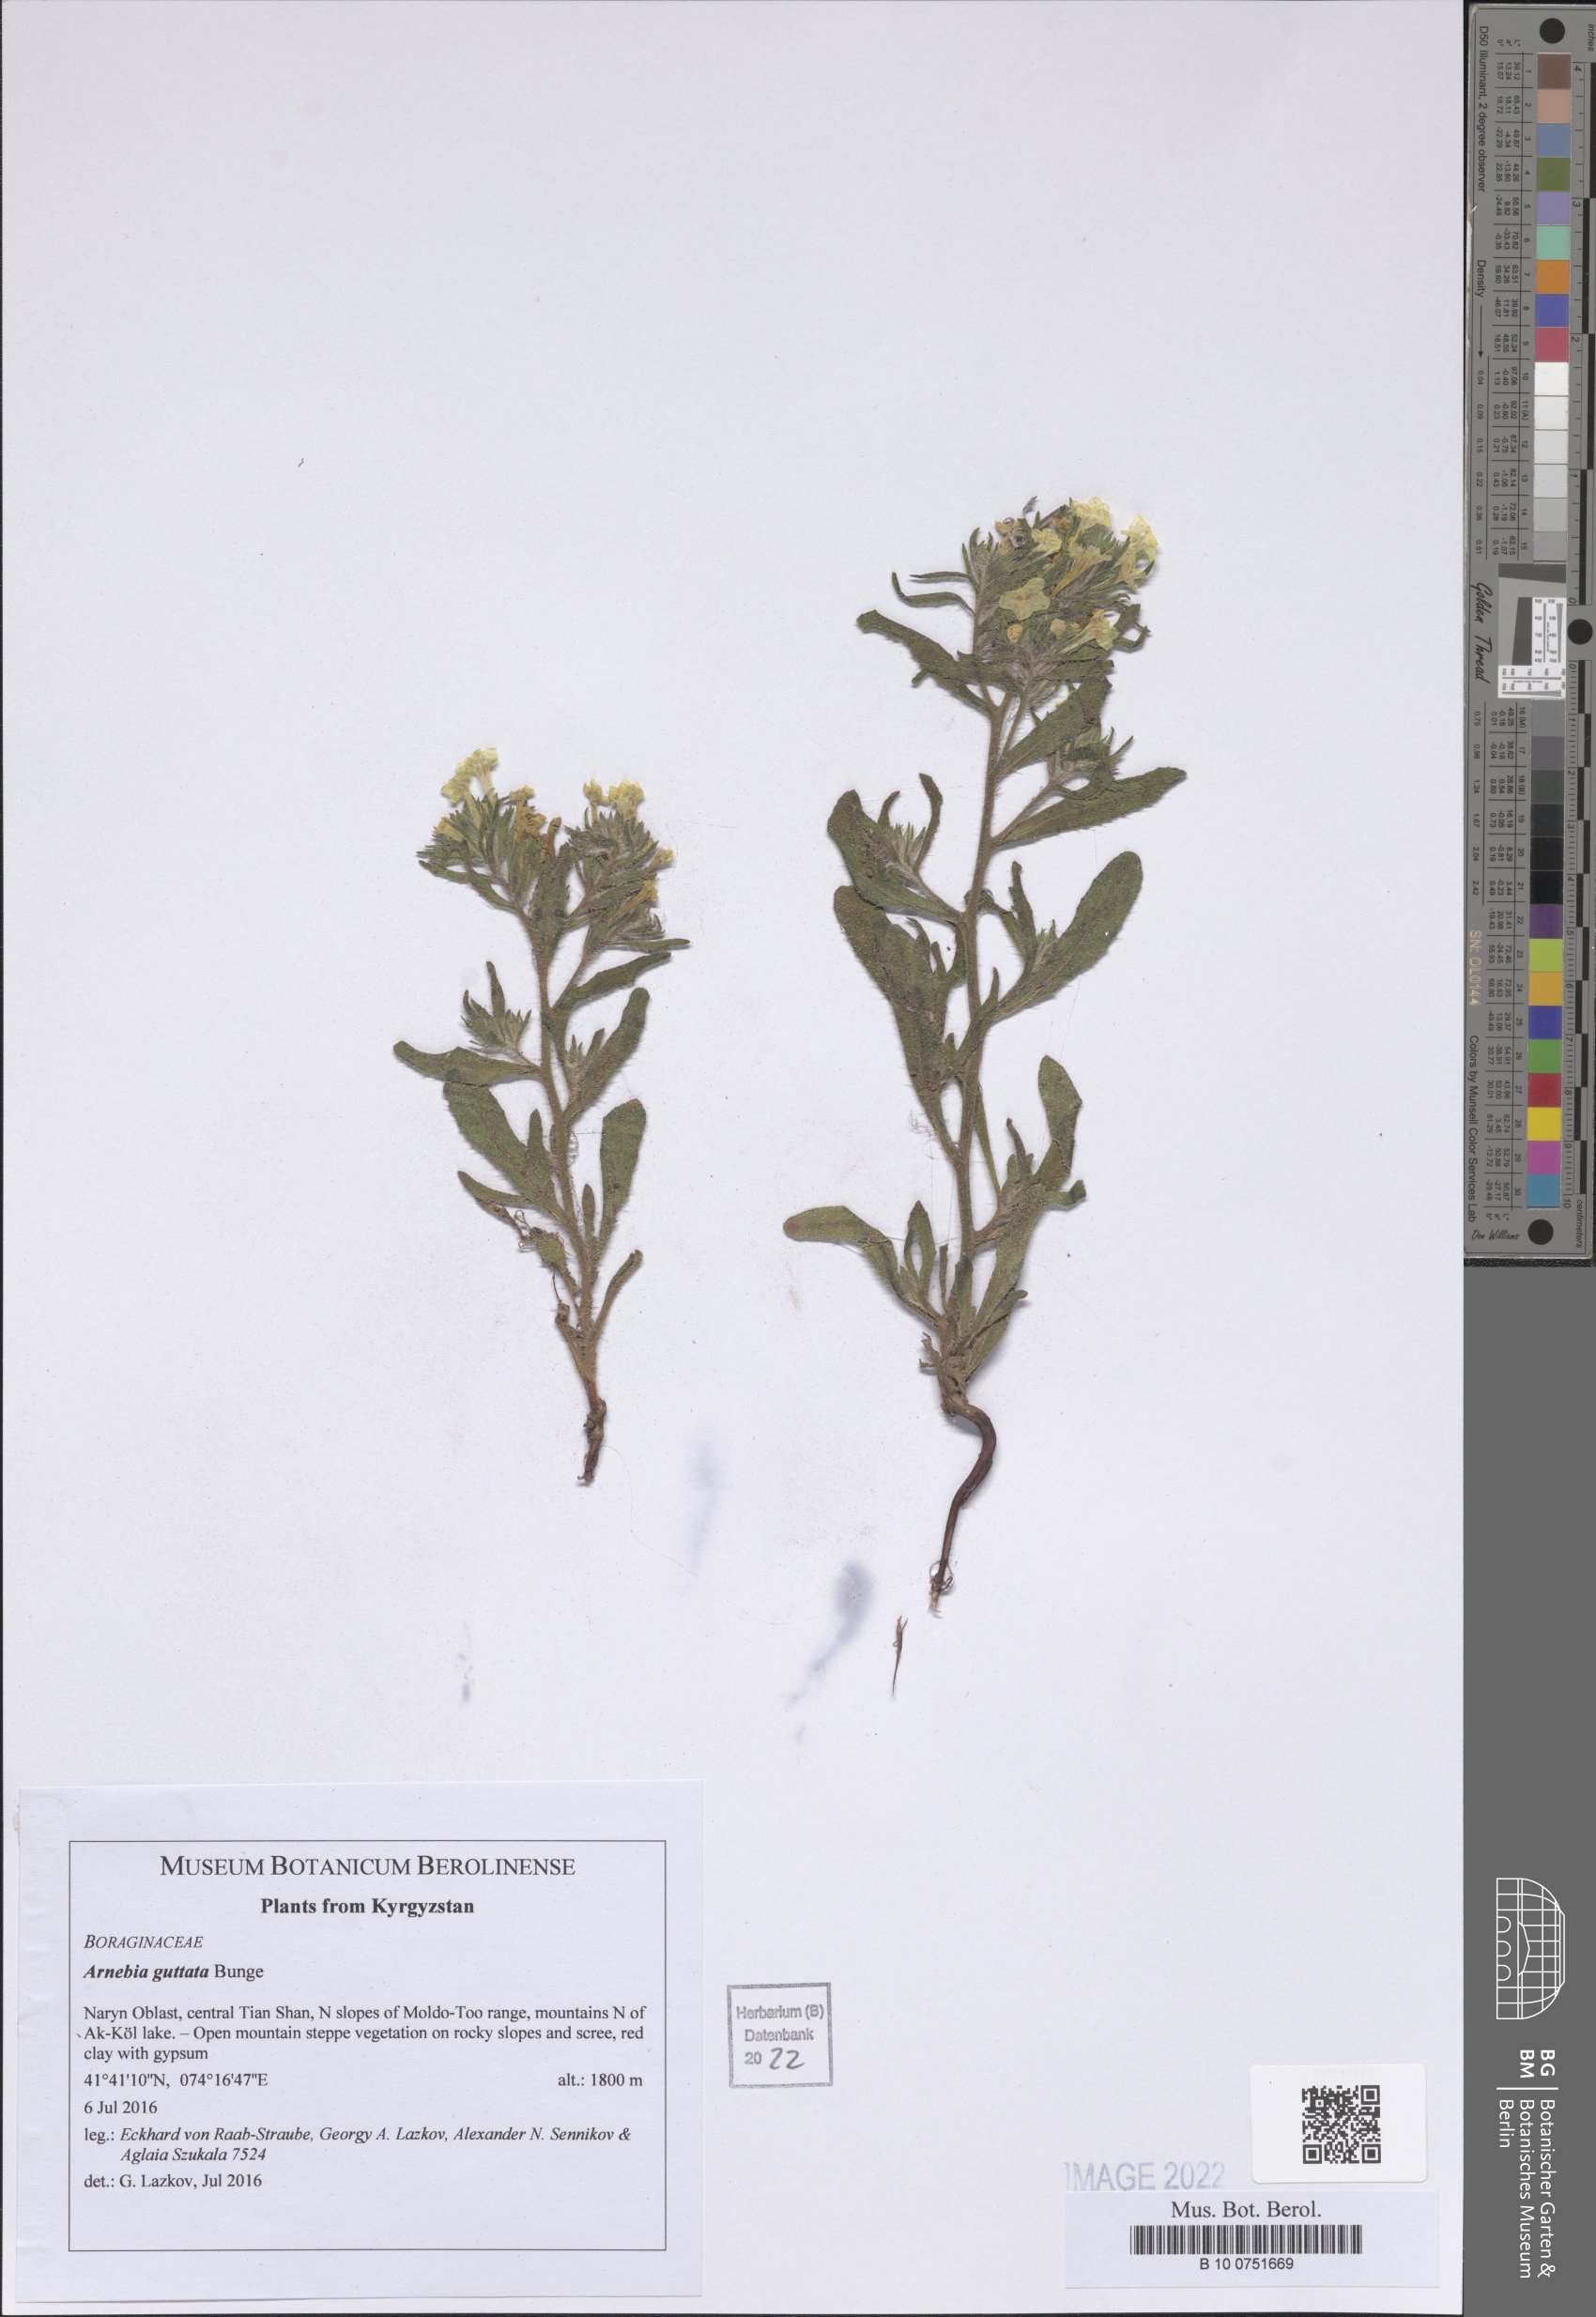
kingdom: Plantae
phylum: Tracheophyta
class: Magnoliopsida
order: Boraginales
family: Boraginaceae
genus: Arnebia
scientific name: Arnebia guttata
